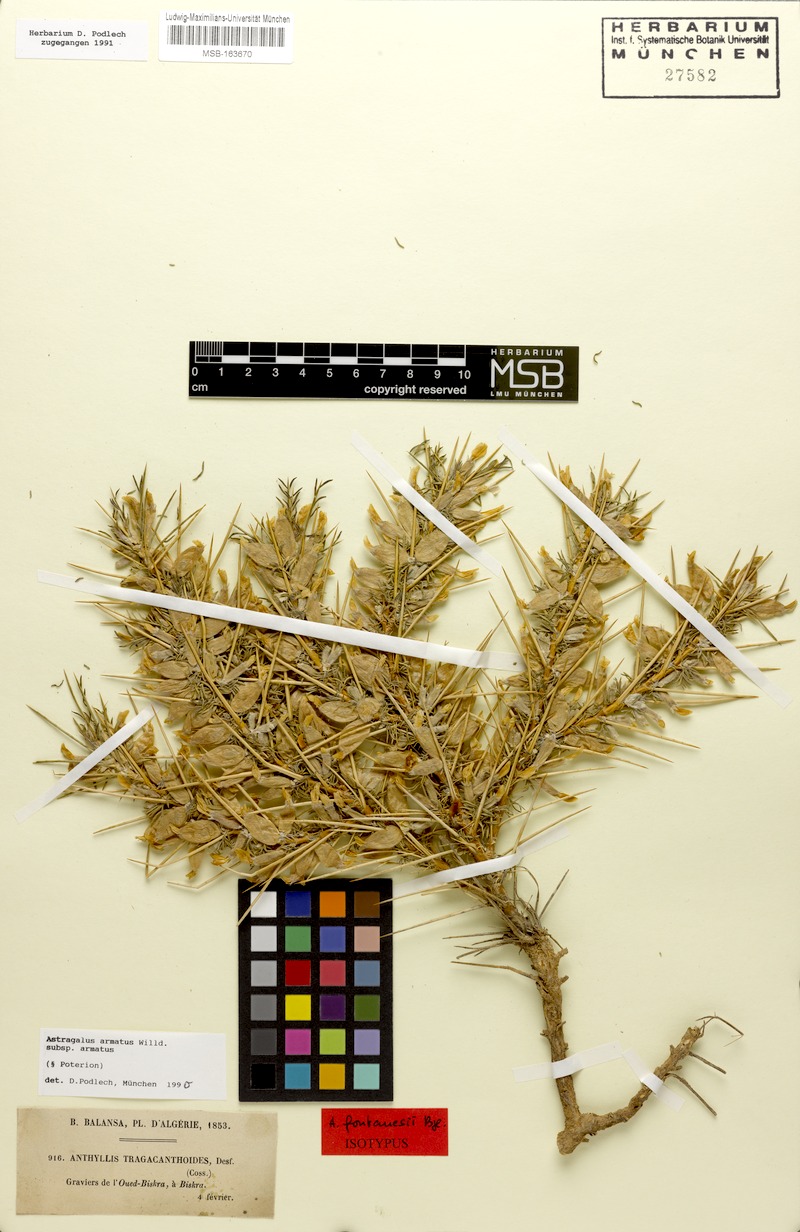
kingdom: Plantae
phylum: Tracheophyta
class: Magnoliopsida
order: Fabales
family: Fabaceae
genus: Astragalus
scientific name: Astragalus armatus
